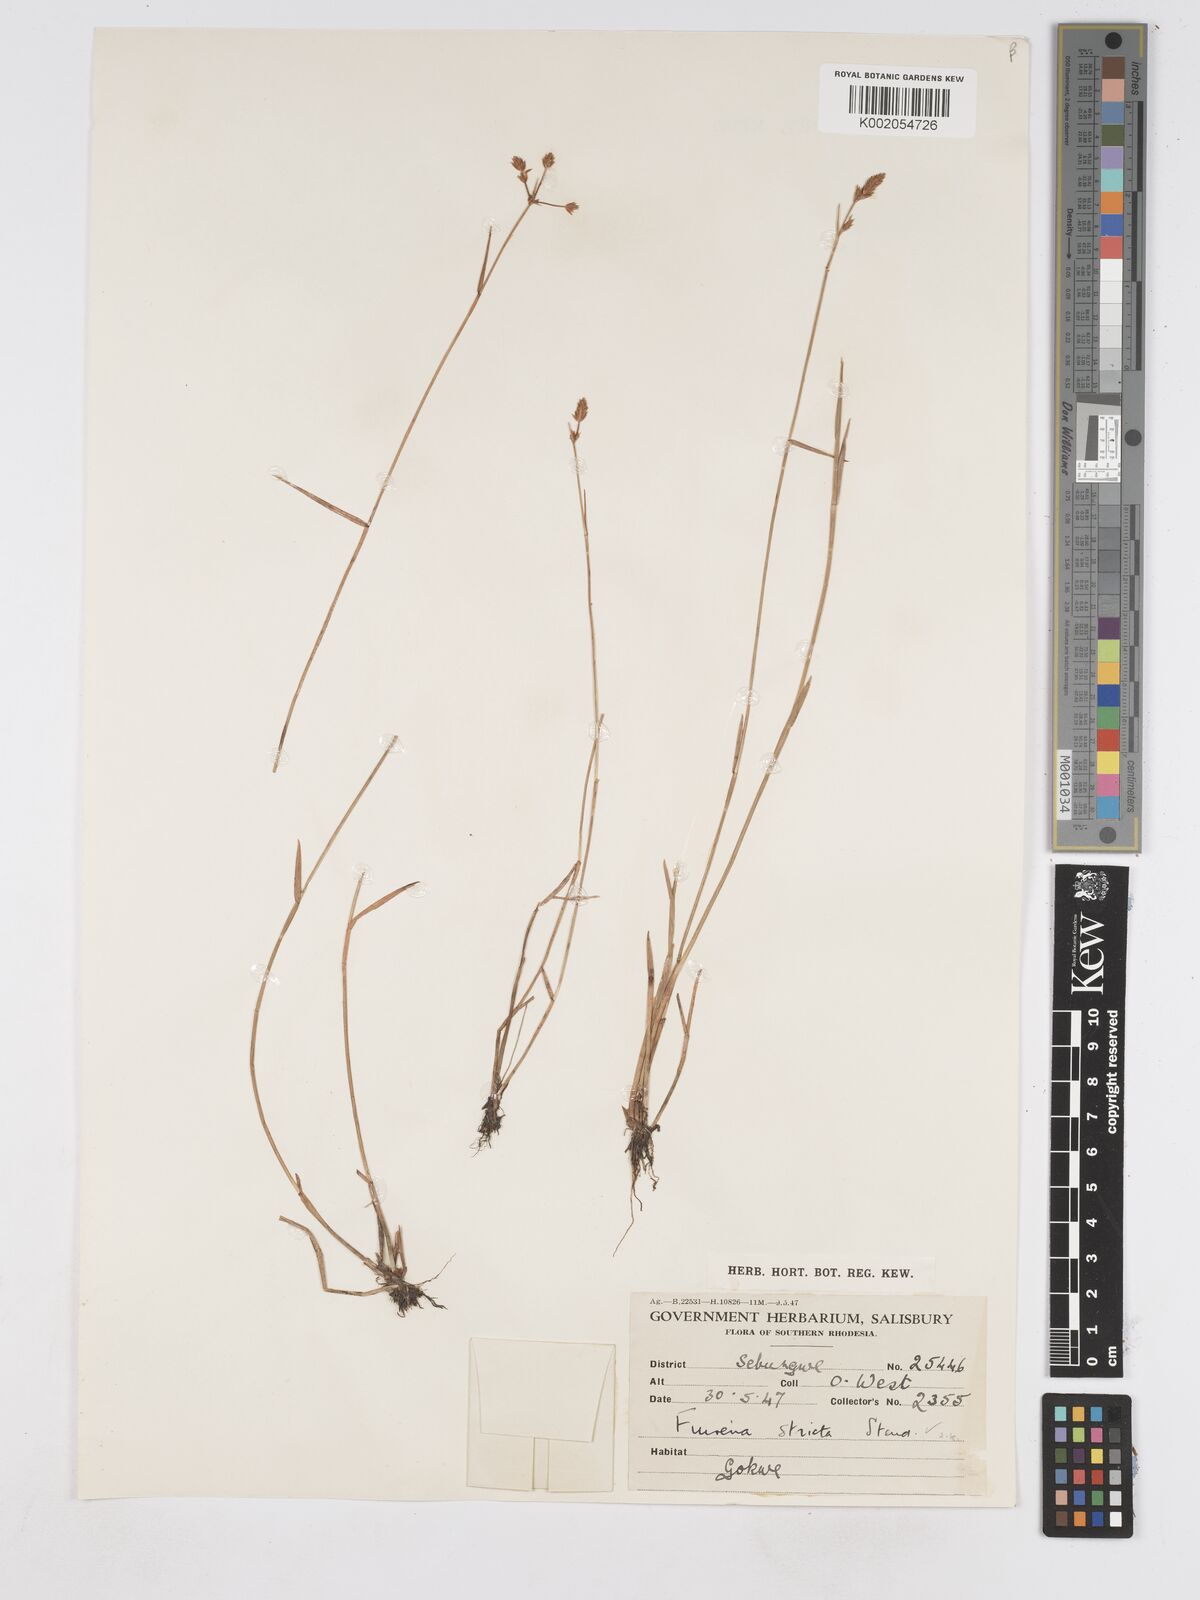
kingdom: Plantae
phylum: Tracheophyta
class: Liliopsida
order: Poales
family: Cyperaceae
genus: Fuirena
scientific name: Fuirena stricta
